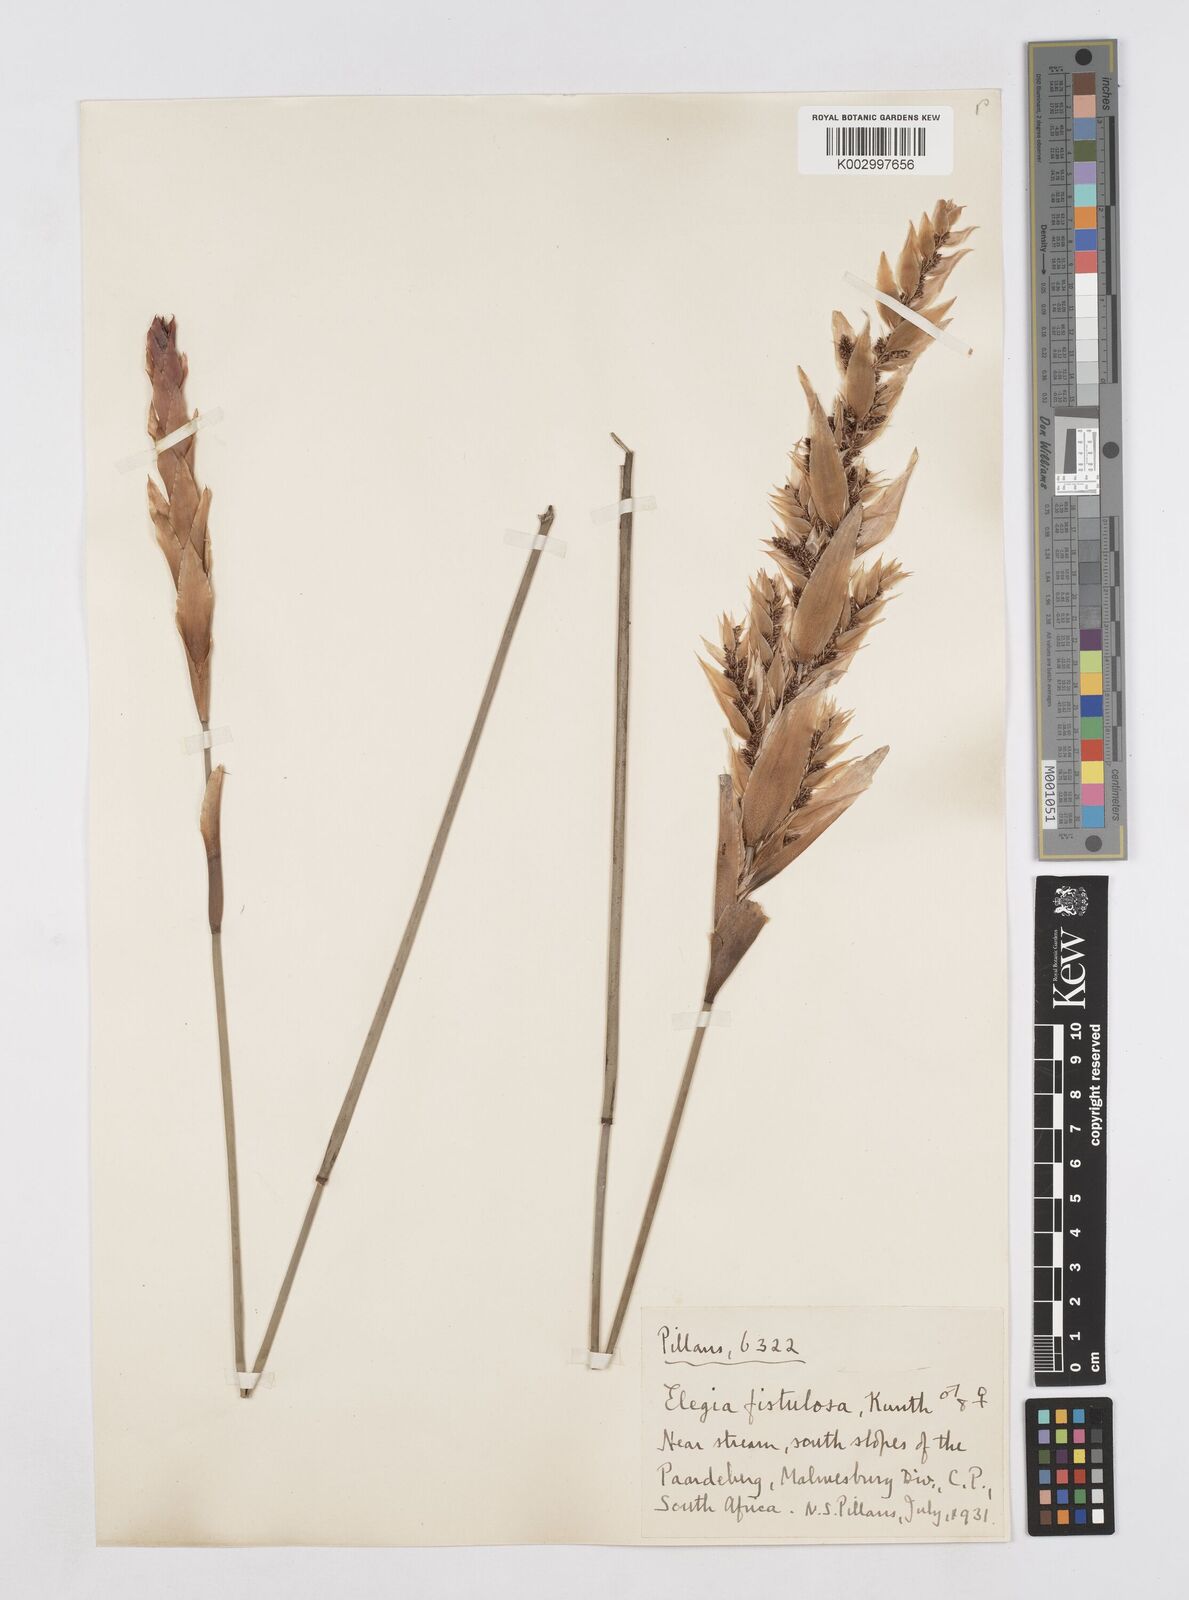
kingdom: Plantae
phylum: Tracheophyta
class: Liliopsida
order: Poales
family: Restionaceae
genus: Elegia
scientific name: Elegia fistulosa
